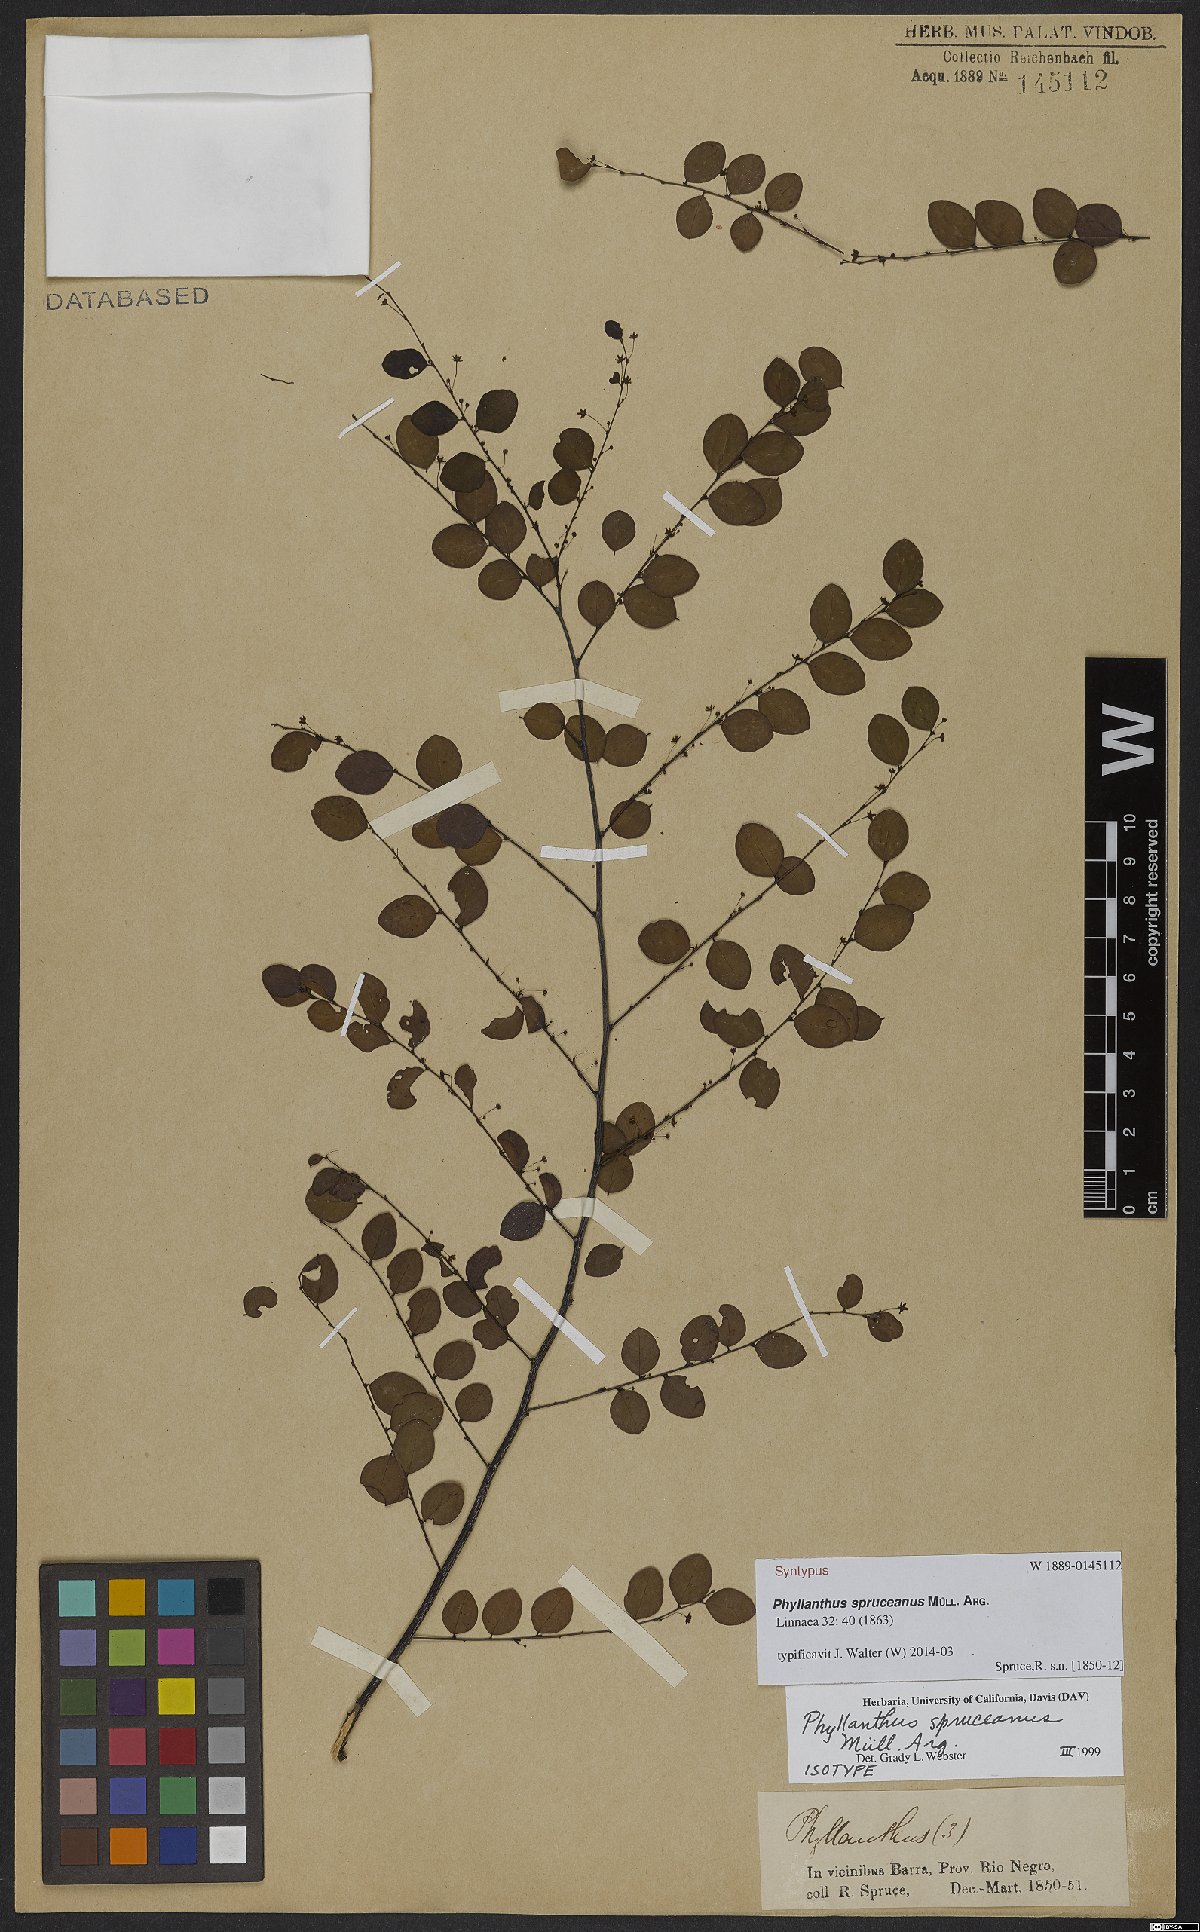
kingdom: Plantae
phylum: Tracheophyta
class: Magnoliopsida
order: Malpighiales
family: Phyllanthaceae
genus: Phyllanthus
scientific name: Phyllanthus spruceanus
